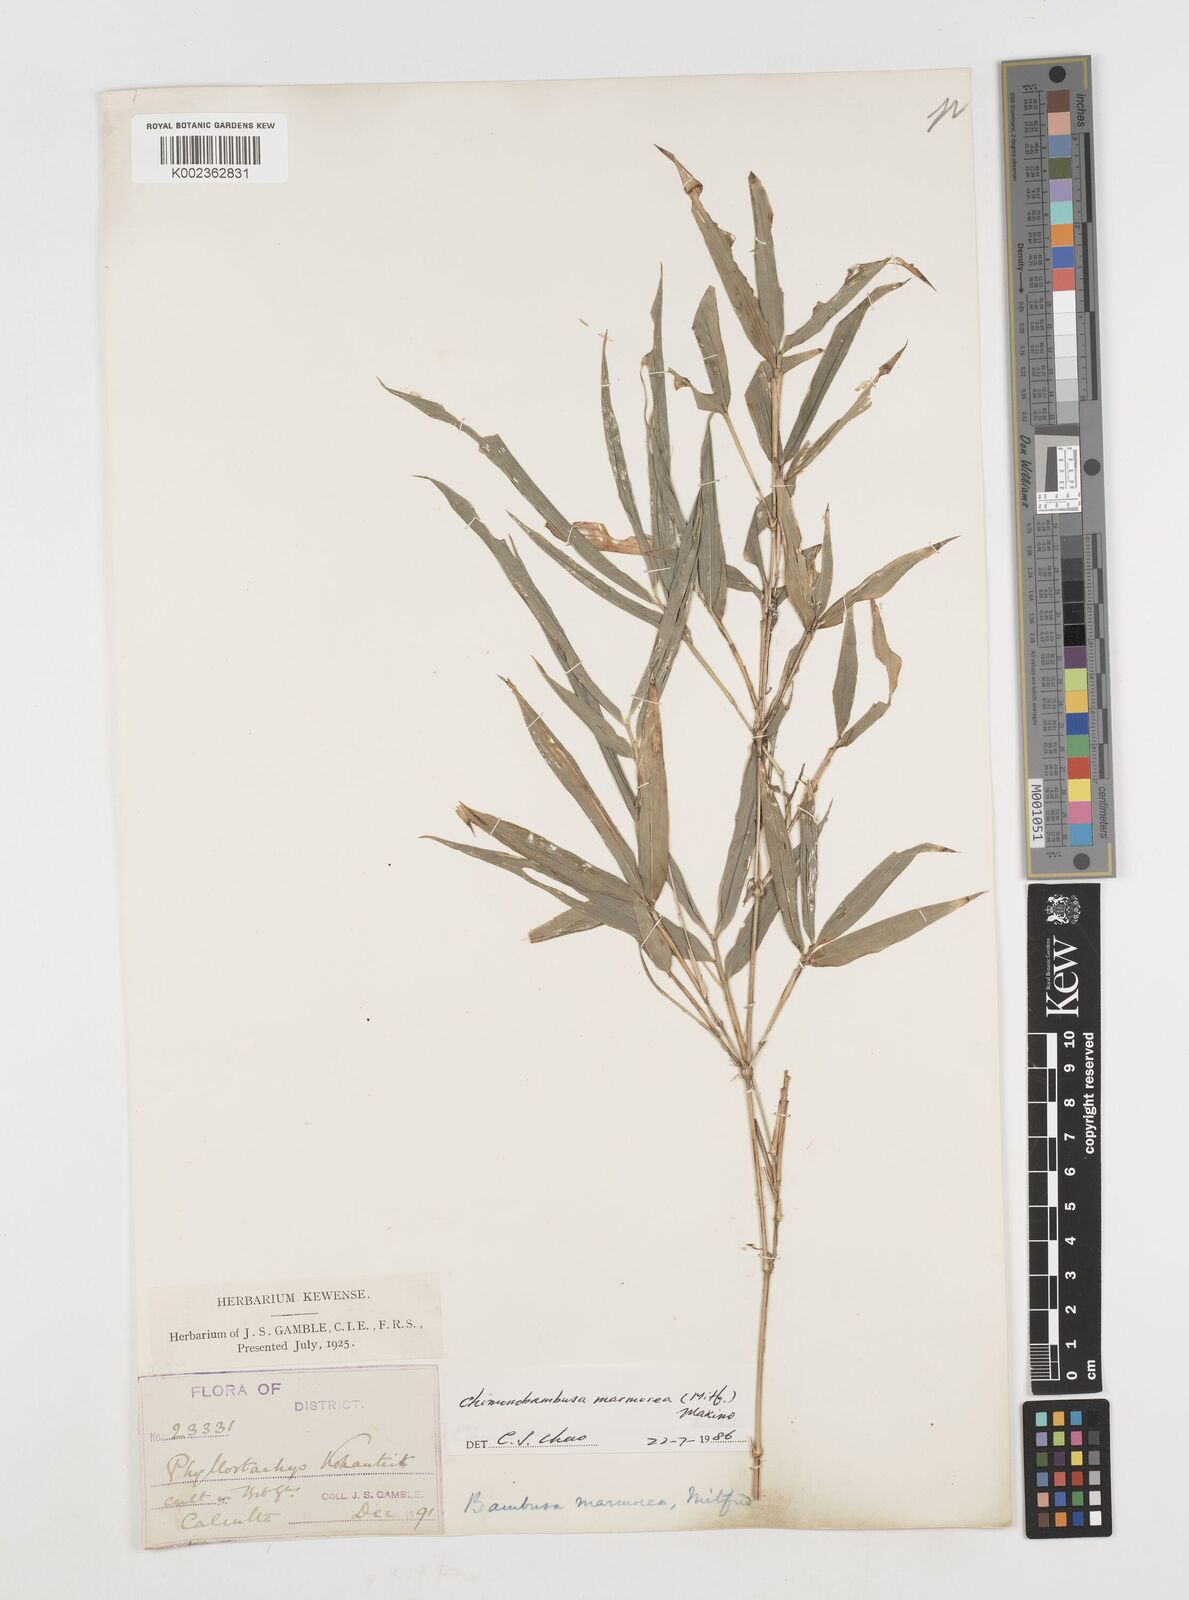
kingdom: Plantae
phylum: Tracheophyta
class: Liliopsida
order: Poales
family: Poaceae
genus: Chimonobambusa
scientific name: Chimonobambusa marmorea
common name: Marbled bamboo
